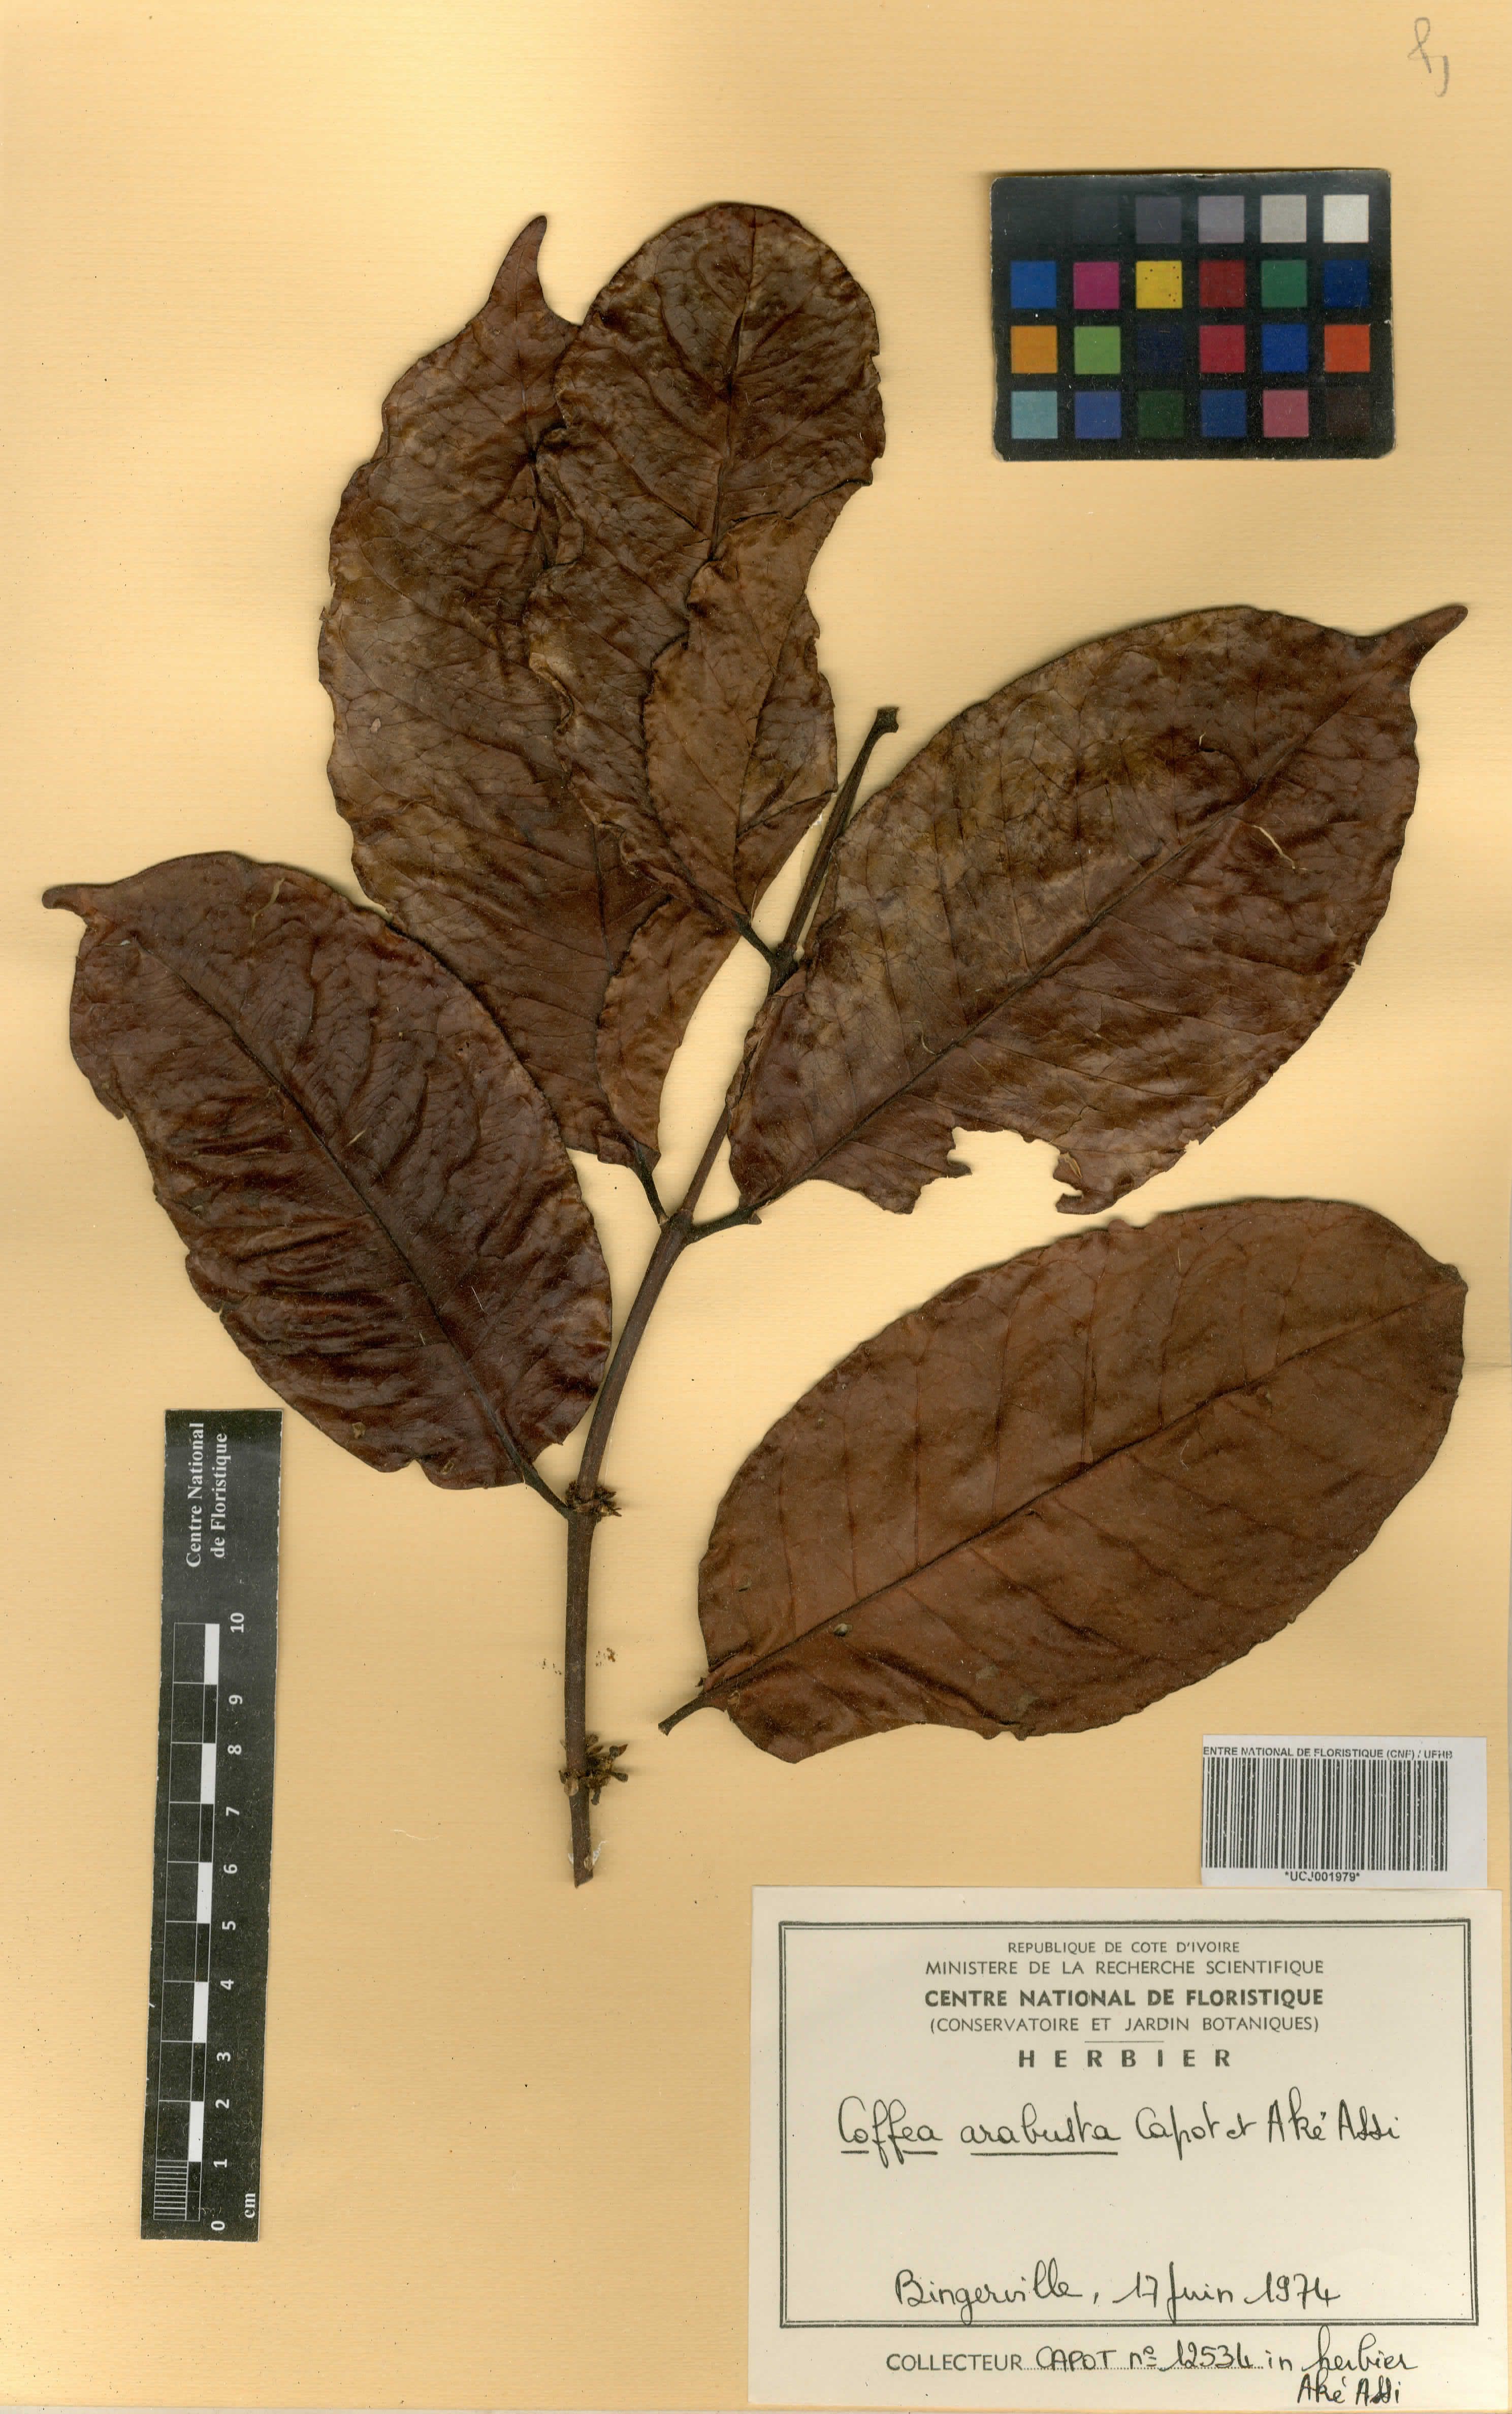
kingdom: Plantae
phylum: Tracheophyta
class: Magnoliopsida
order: Gentianales
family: Rubiaceae
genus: Coffea
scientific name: Coffea arabusta
